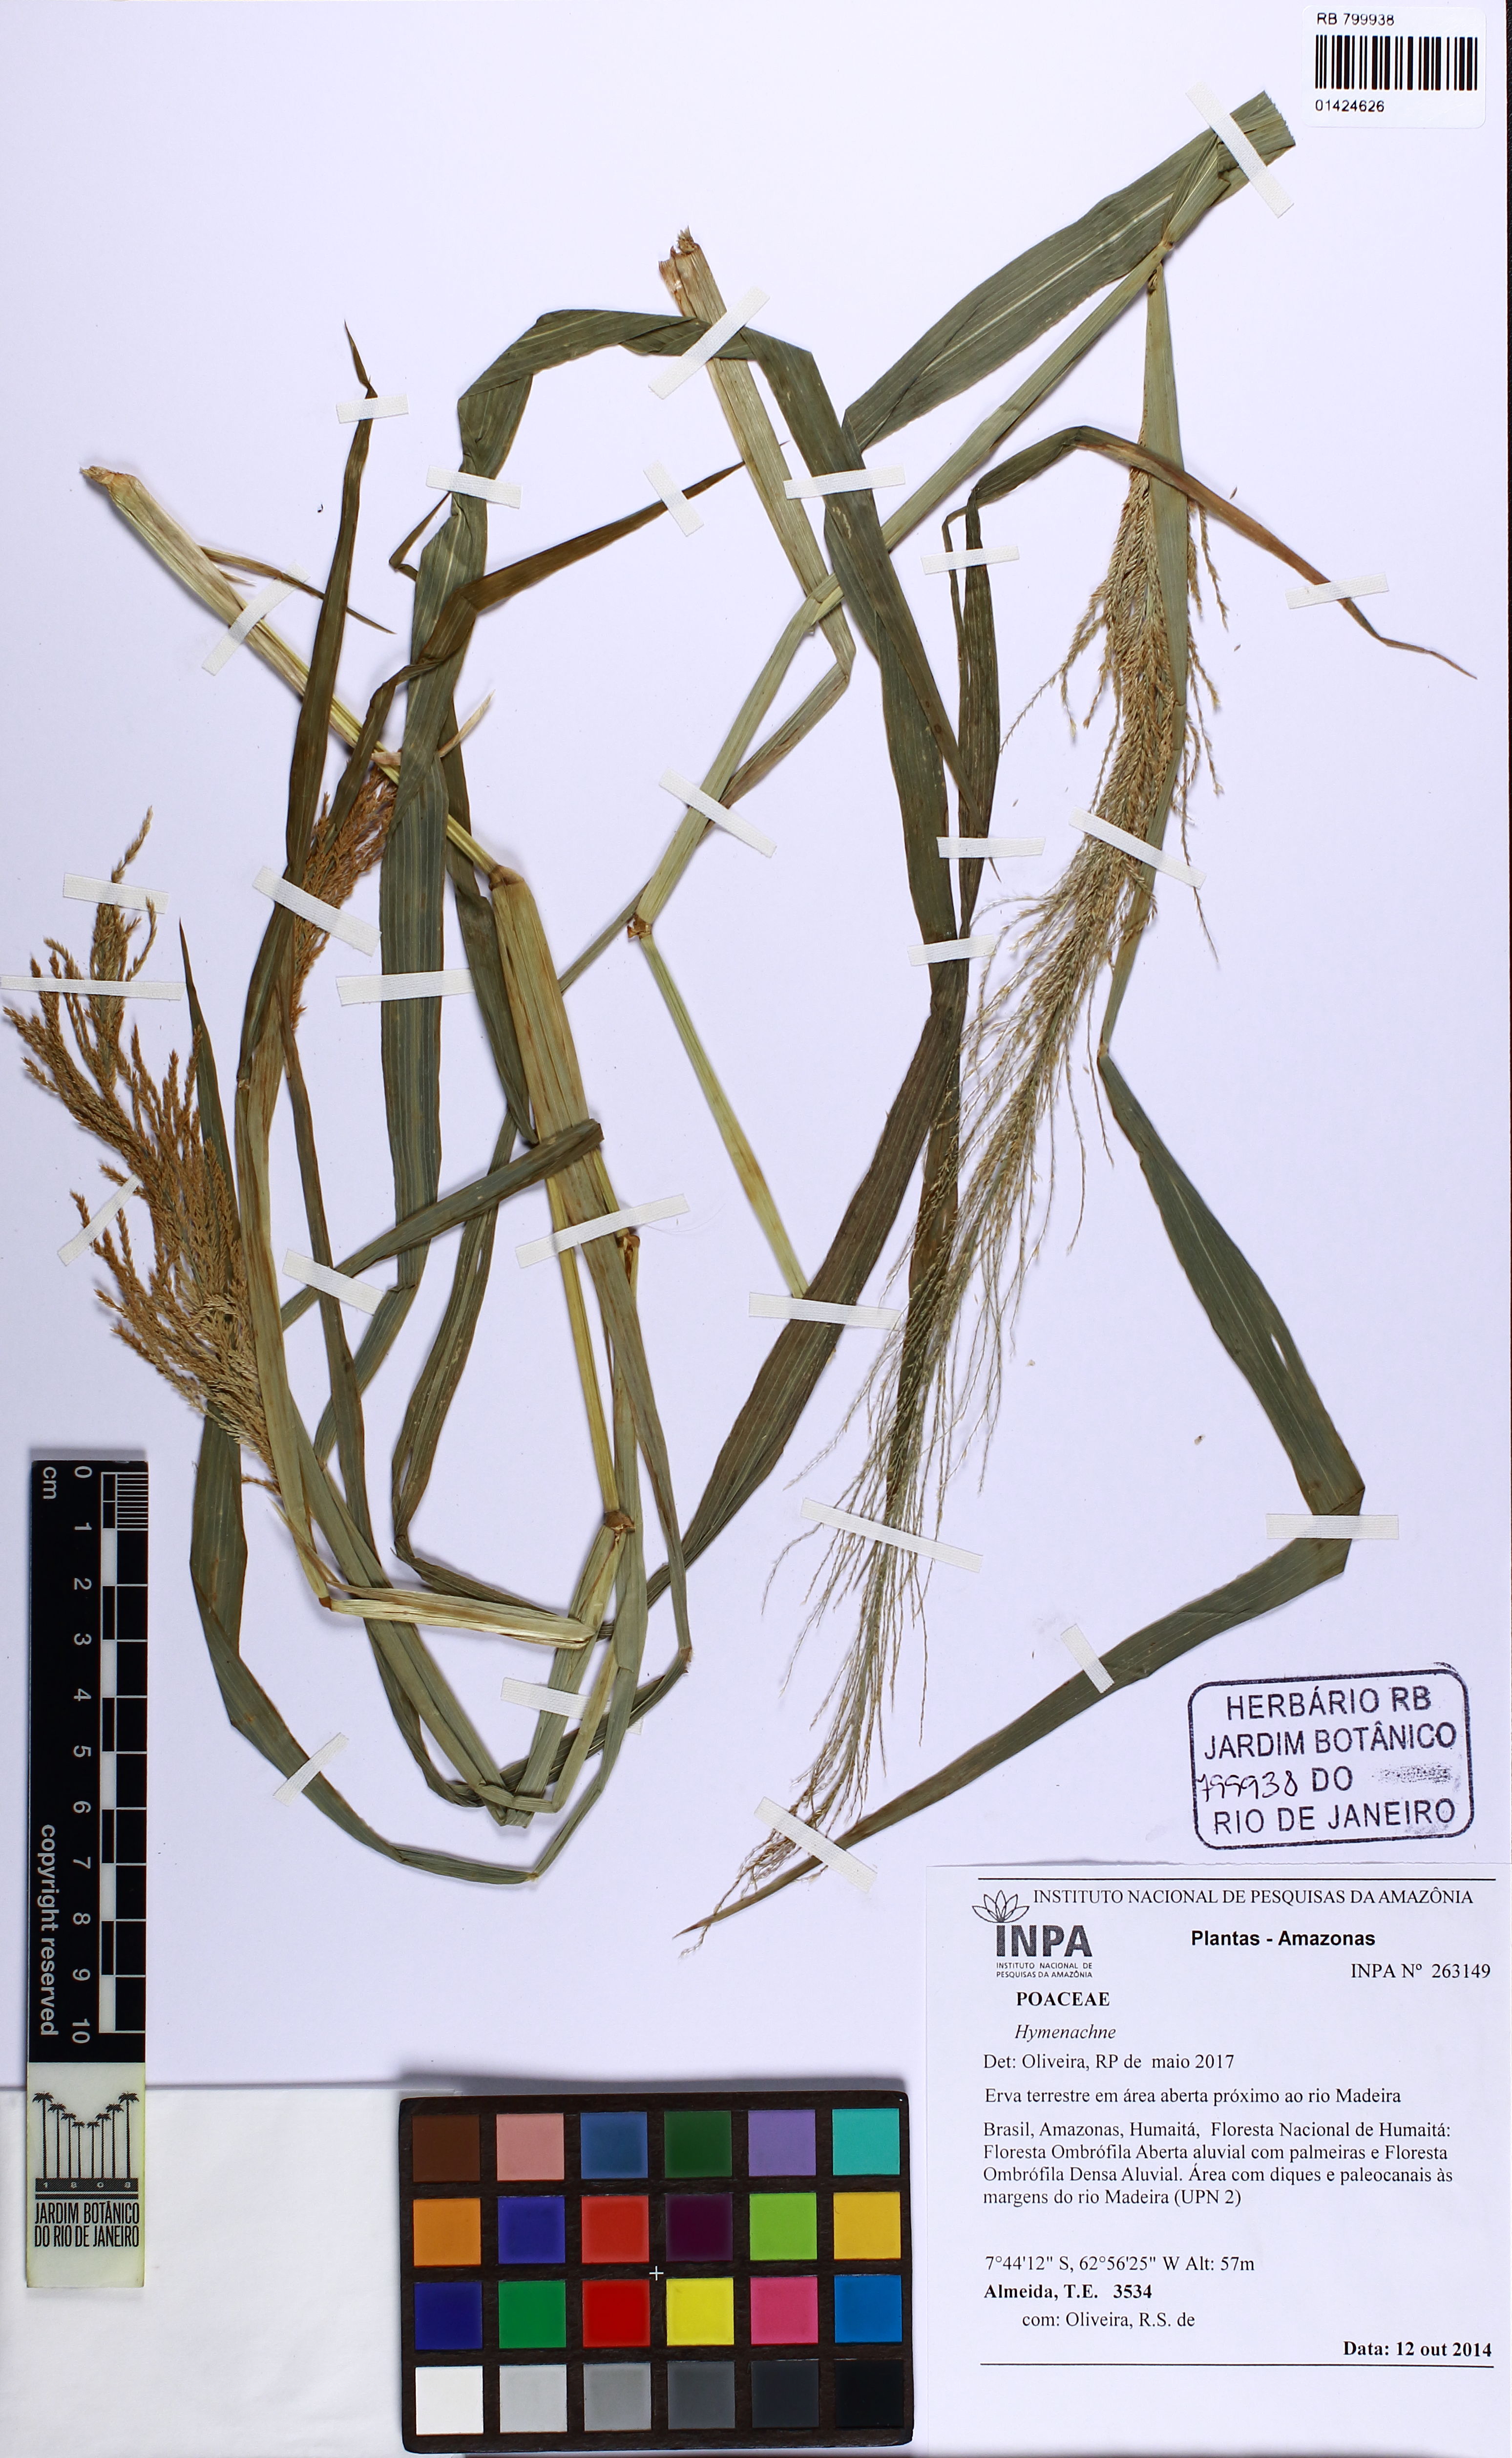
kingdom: Plantae
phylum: Tracheophyta
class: Liliopsida
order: Poales
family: Poaceae
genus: Hymenachne
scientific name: Hymenachne
